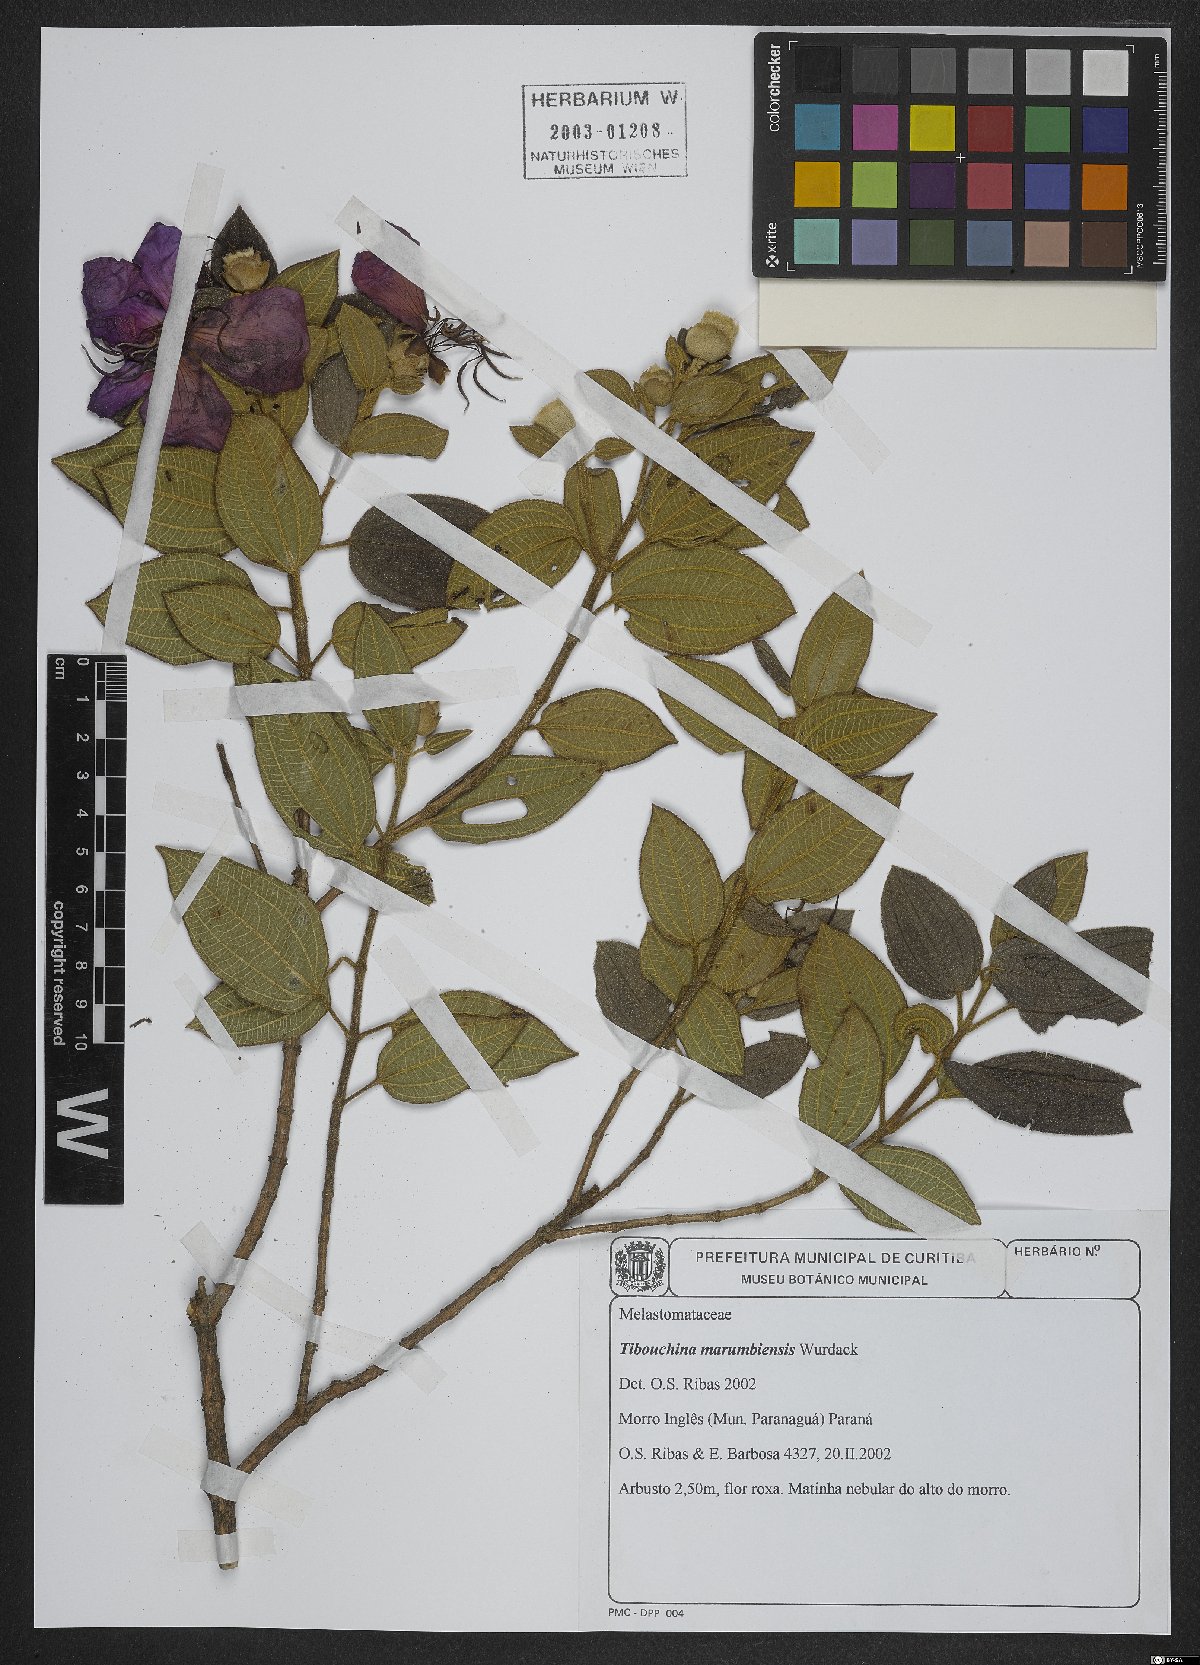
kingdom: Plantae
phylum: Tracheophyta
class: Magnoliopsida
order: Myrtales
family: Melastomataceae
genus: Pleroma
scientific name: Pleroma marumbiense
